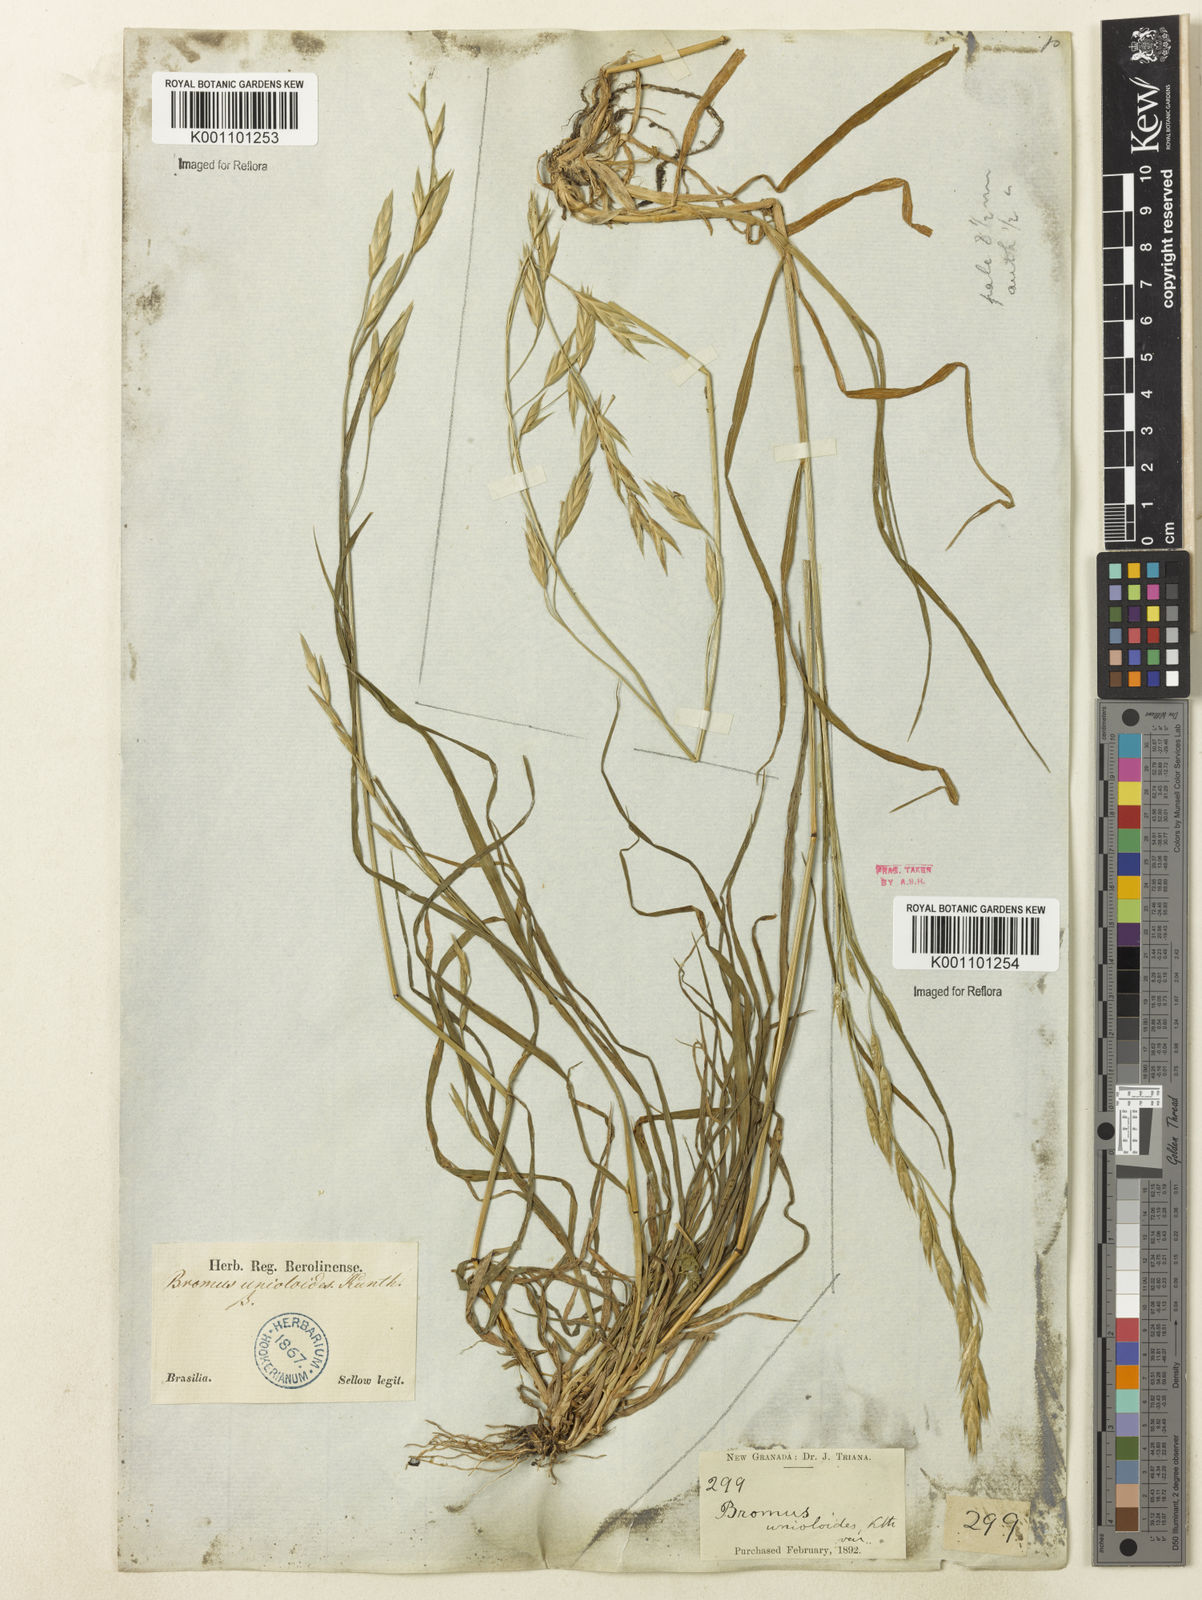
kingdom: Plantae
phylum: Tracheophyta
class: Liliopsida
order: Poales
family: Poaceae
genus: Bromus
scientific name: Bromus catharticus
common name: Rescuegrass
